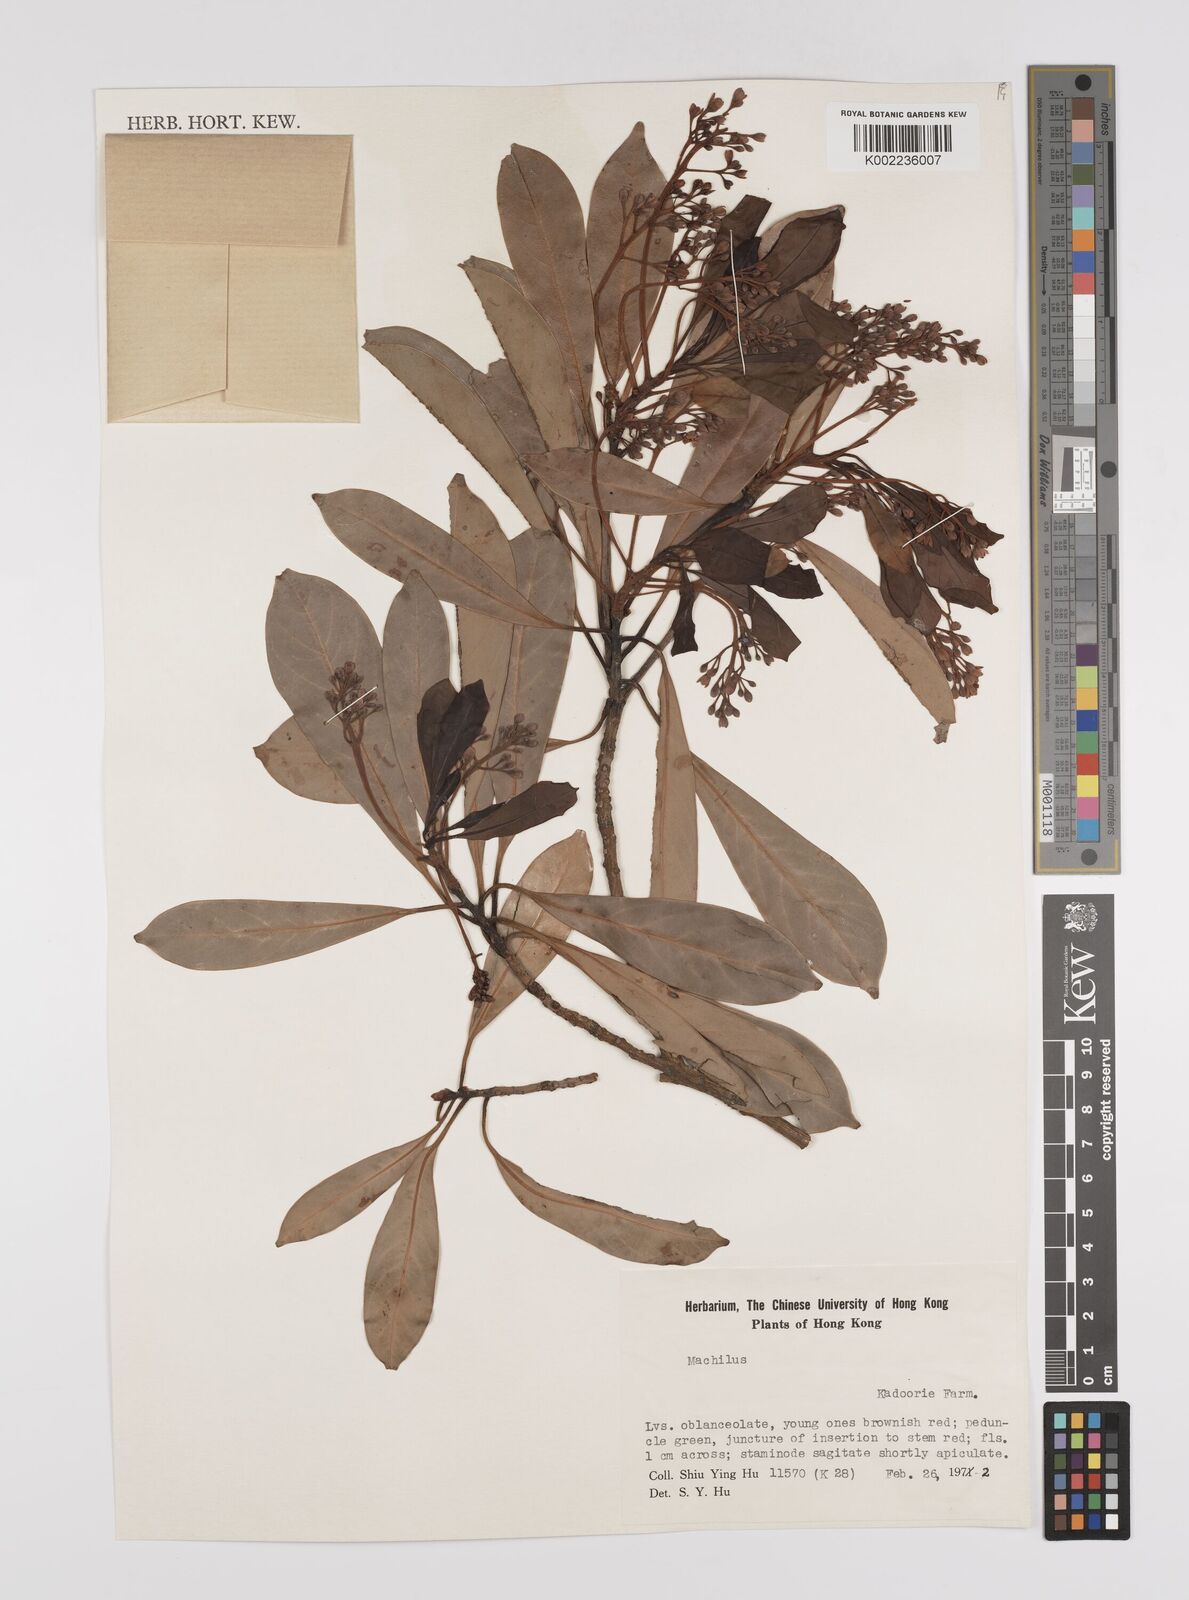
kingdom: Plantae
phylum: Tracheophyta
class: Magnoliopsida
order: Laurales
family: Lauraceae
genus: Persea
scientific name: Persea
